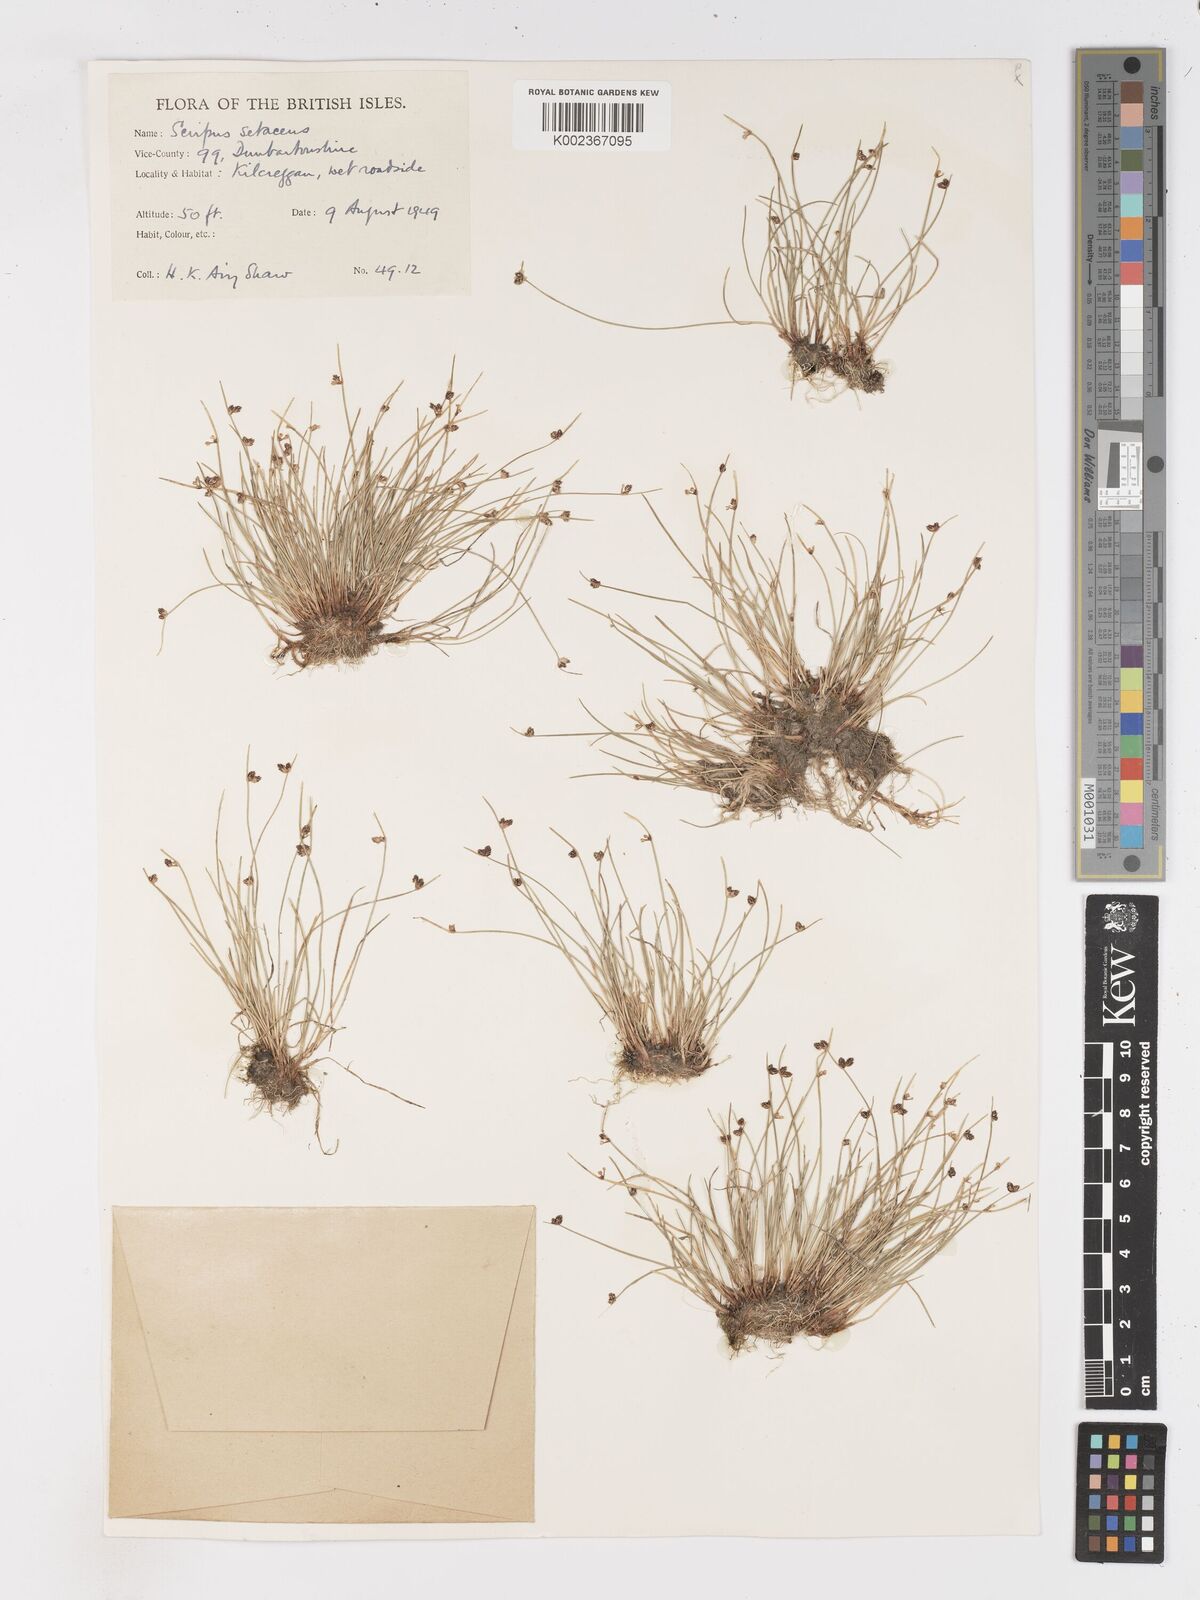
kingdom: Plantae
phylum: Tracheophyta
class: Liliopsida
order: Poales
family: Cyperaceae
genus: Isolepis
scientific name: Isolepis setacea
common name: Bristle club-rush
